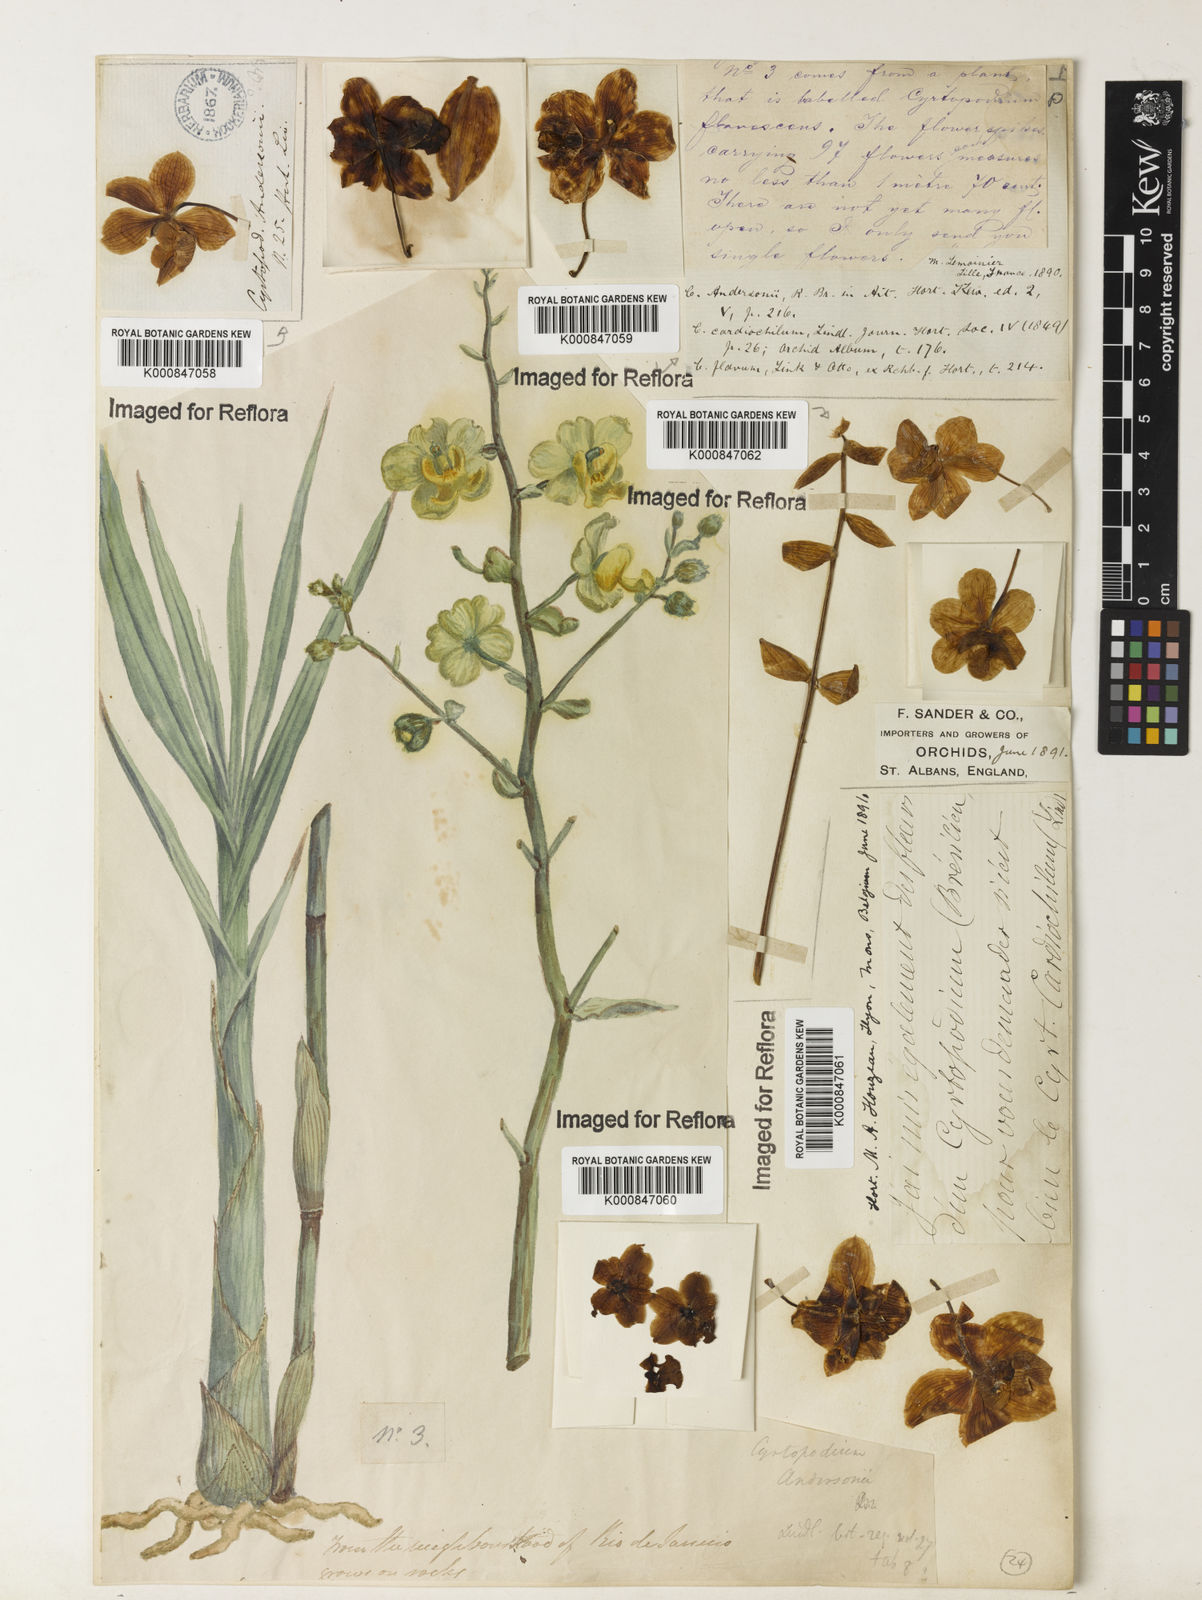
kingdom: Plantae
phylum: Tracheophyta
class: Liliopsida
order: Asparagales
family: Orchidaceae
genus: Cyrtopodium
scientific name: Cyrtopodium andersonii
